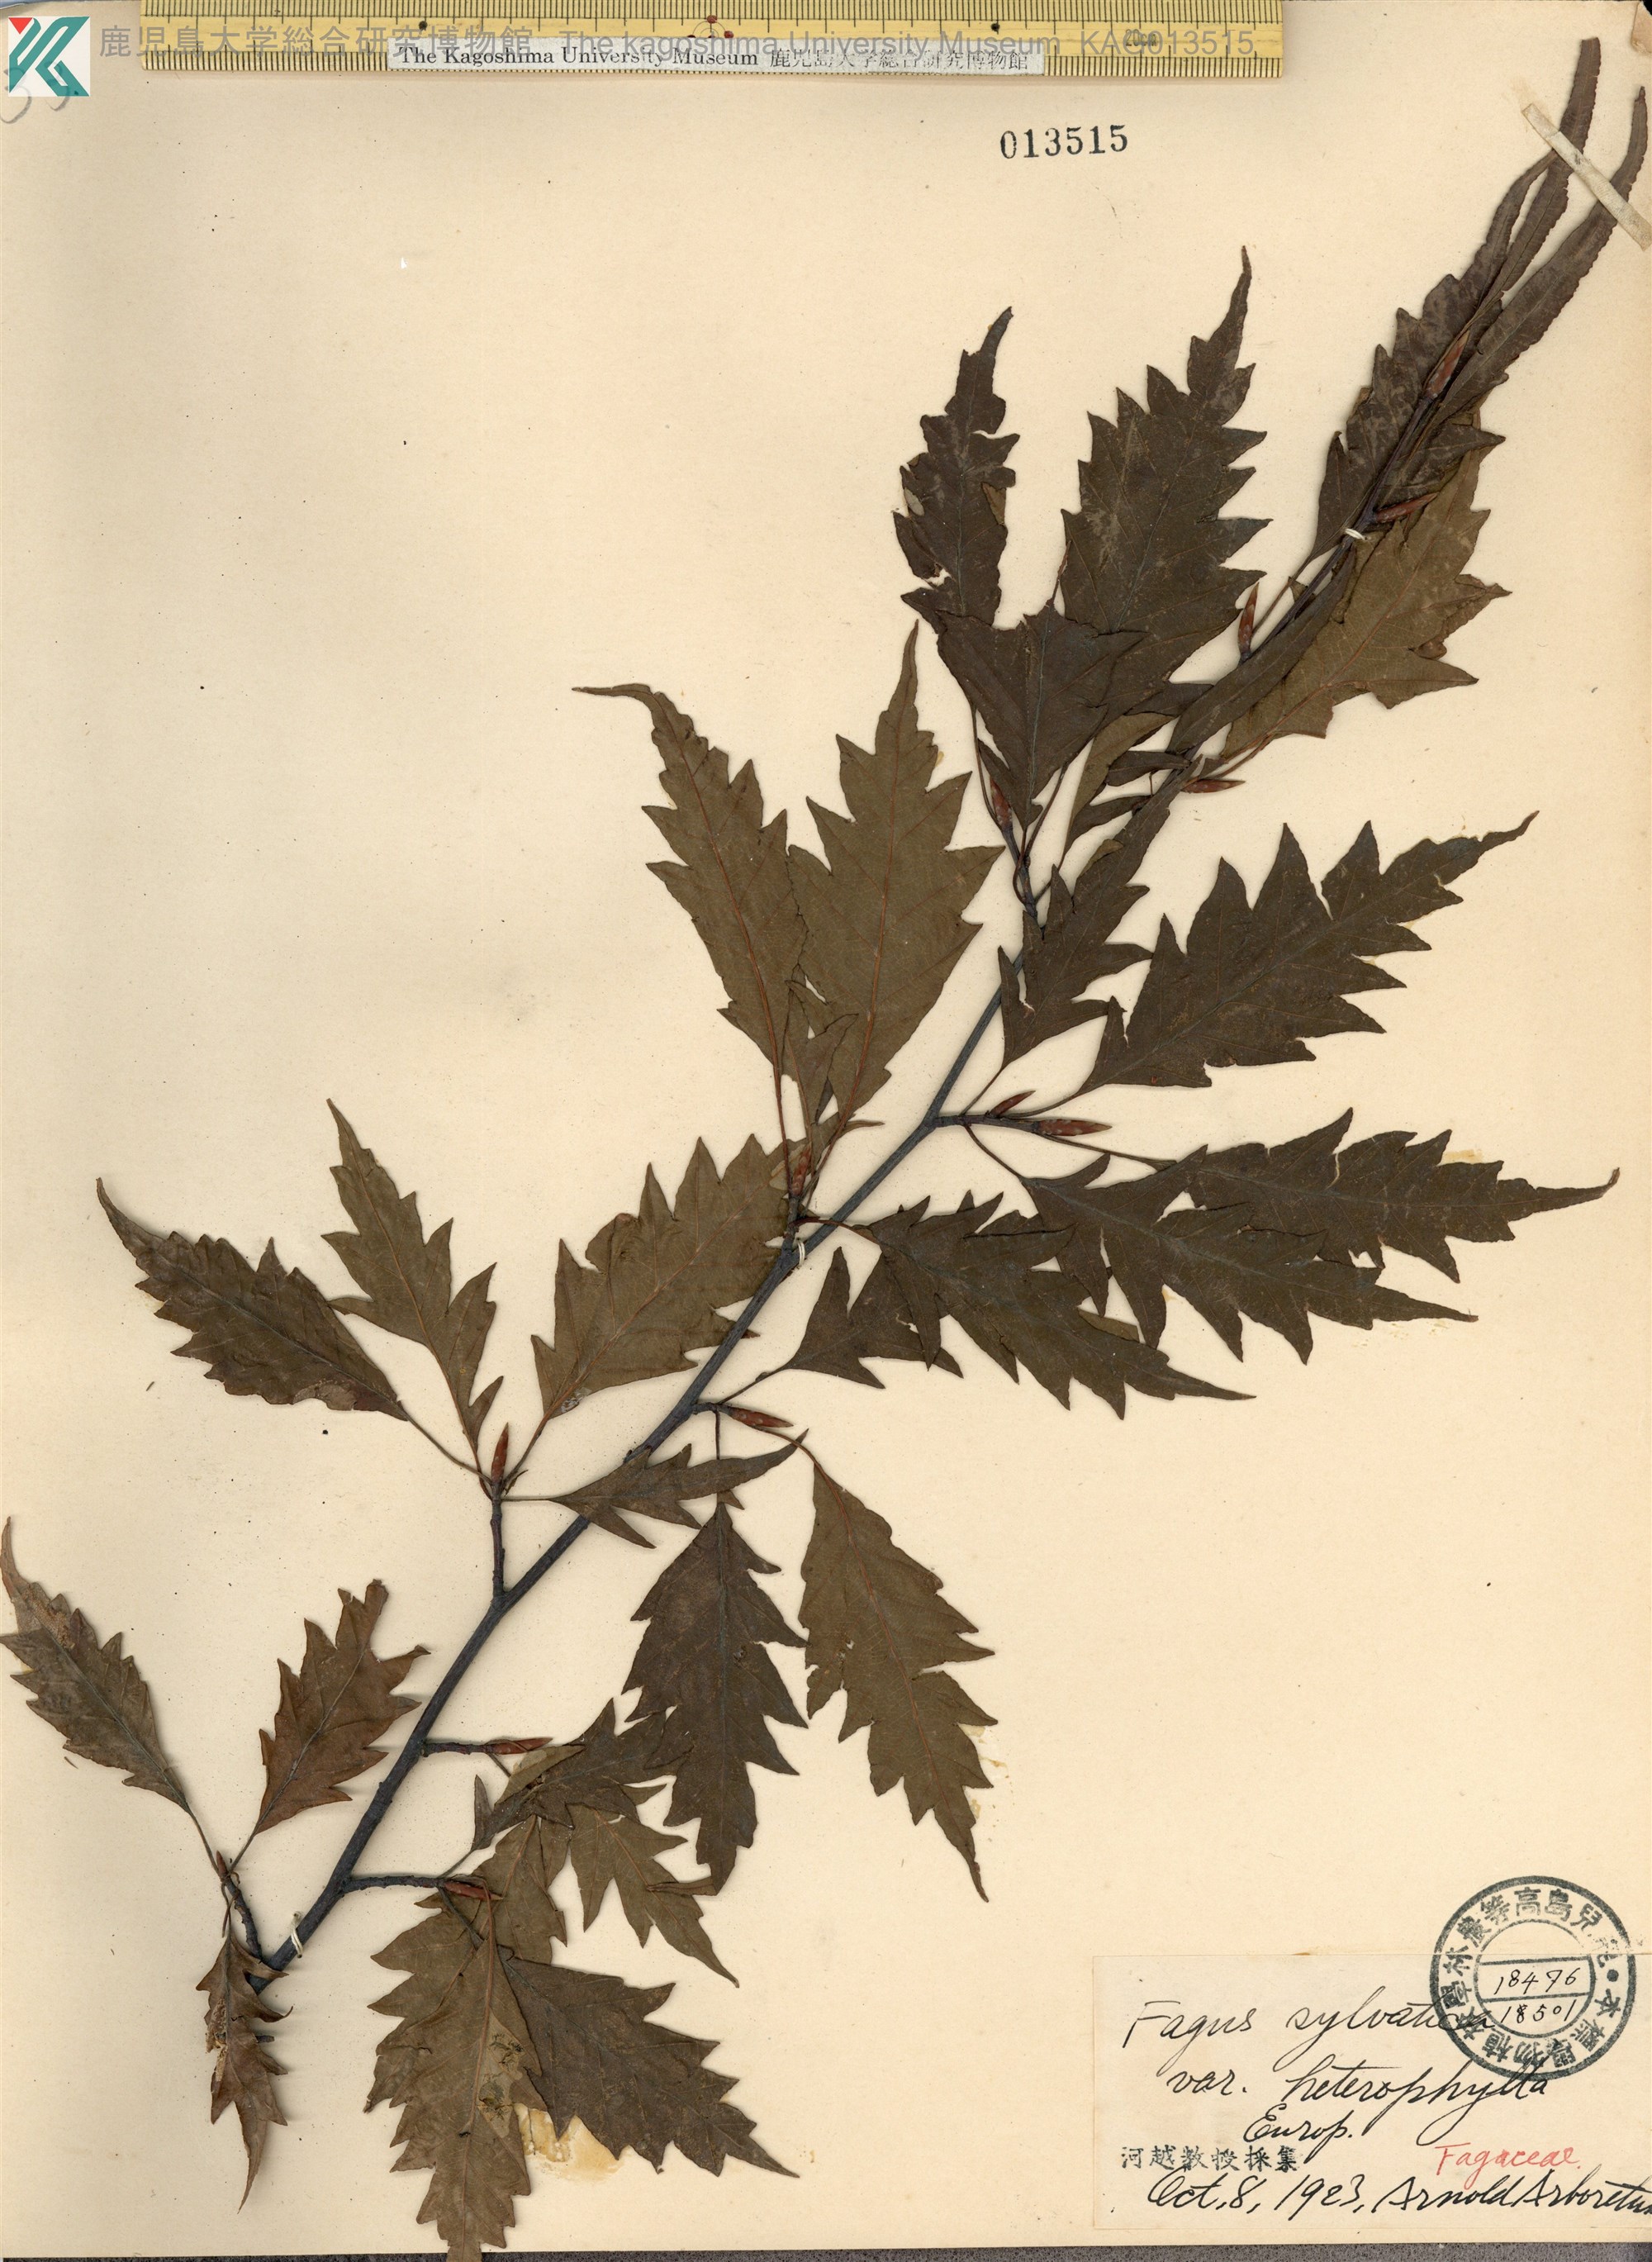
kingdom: Plantae
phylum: Tracheophyta
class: Magnoliopsida
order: Fagales
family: Fagaceae
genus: Fagus
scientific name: Fagus
